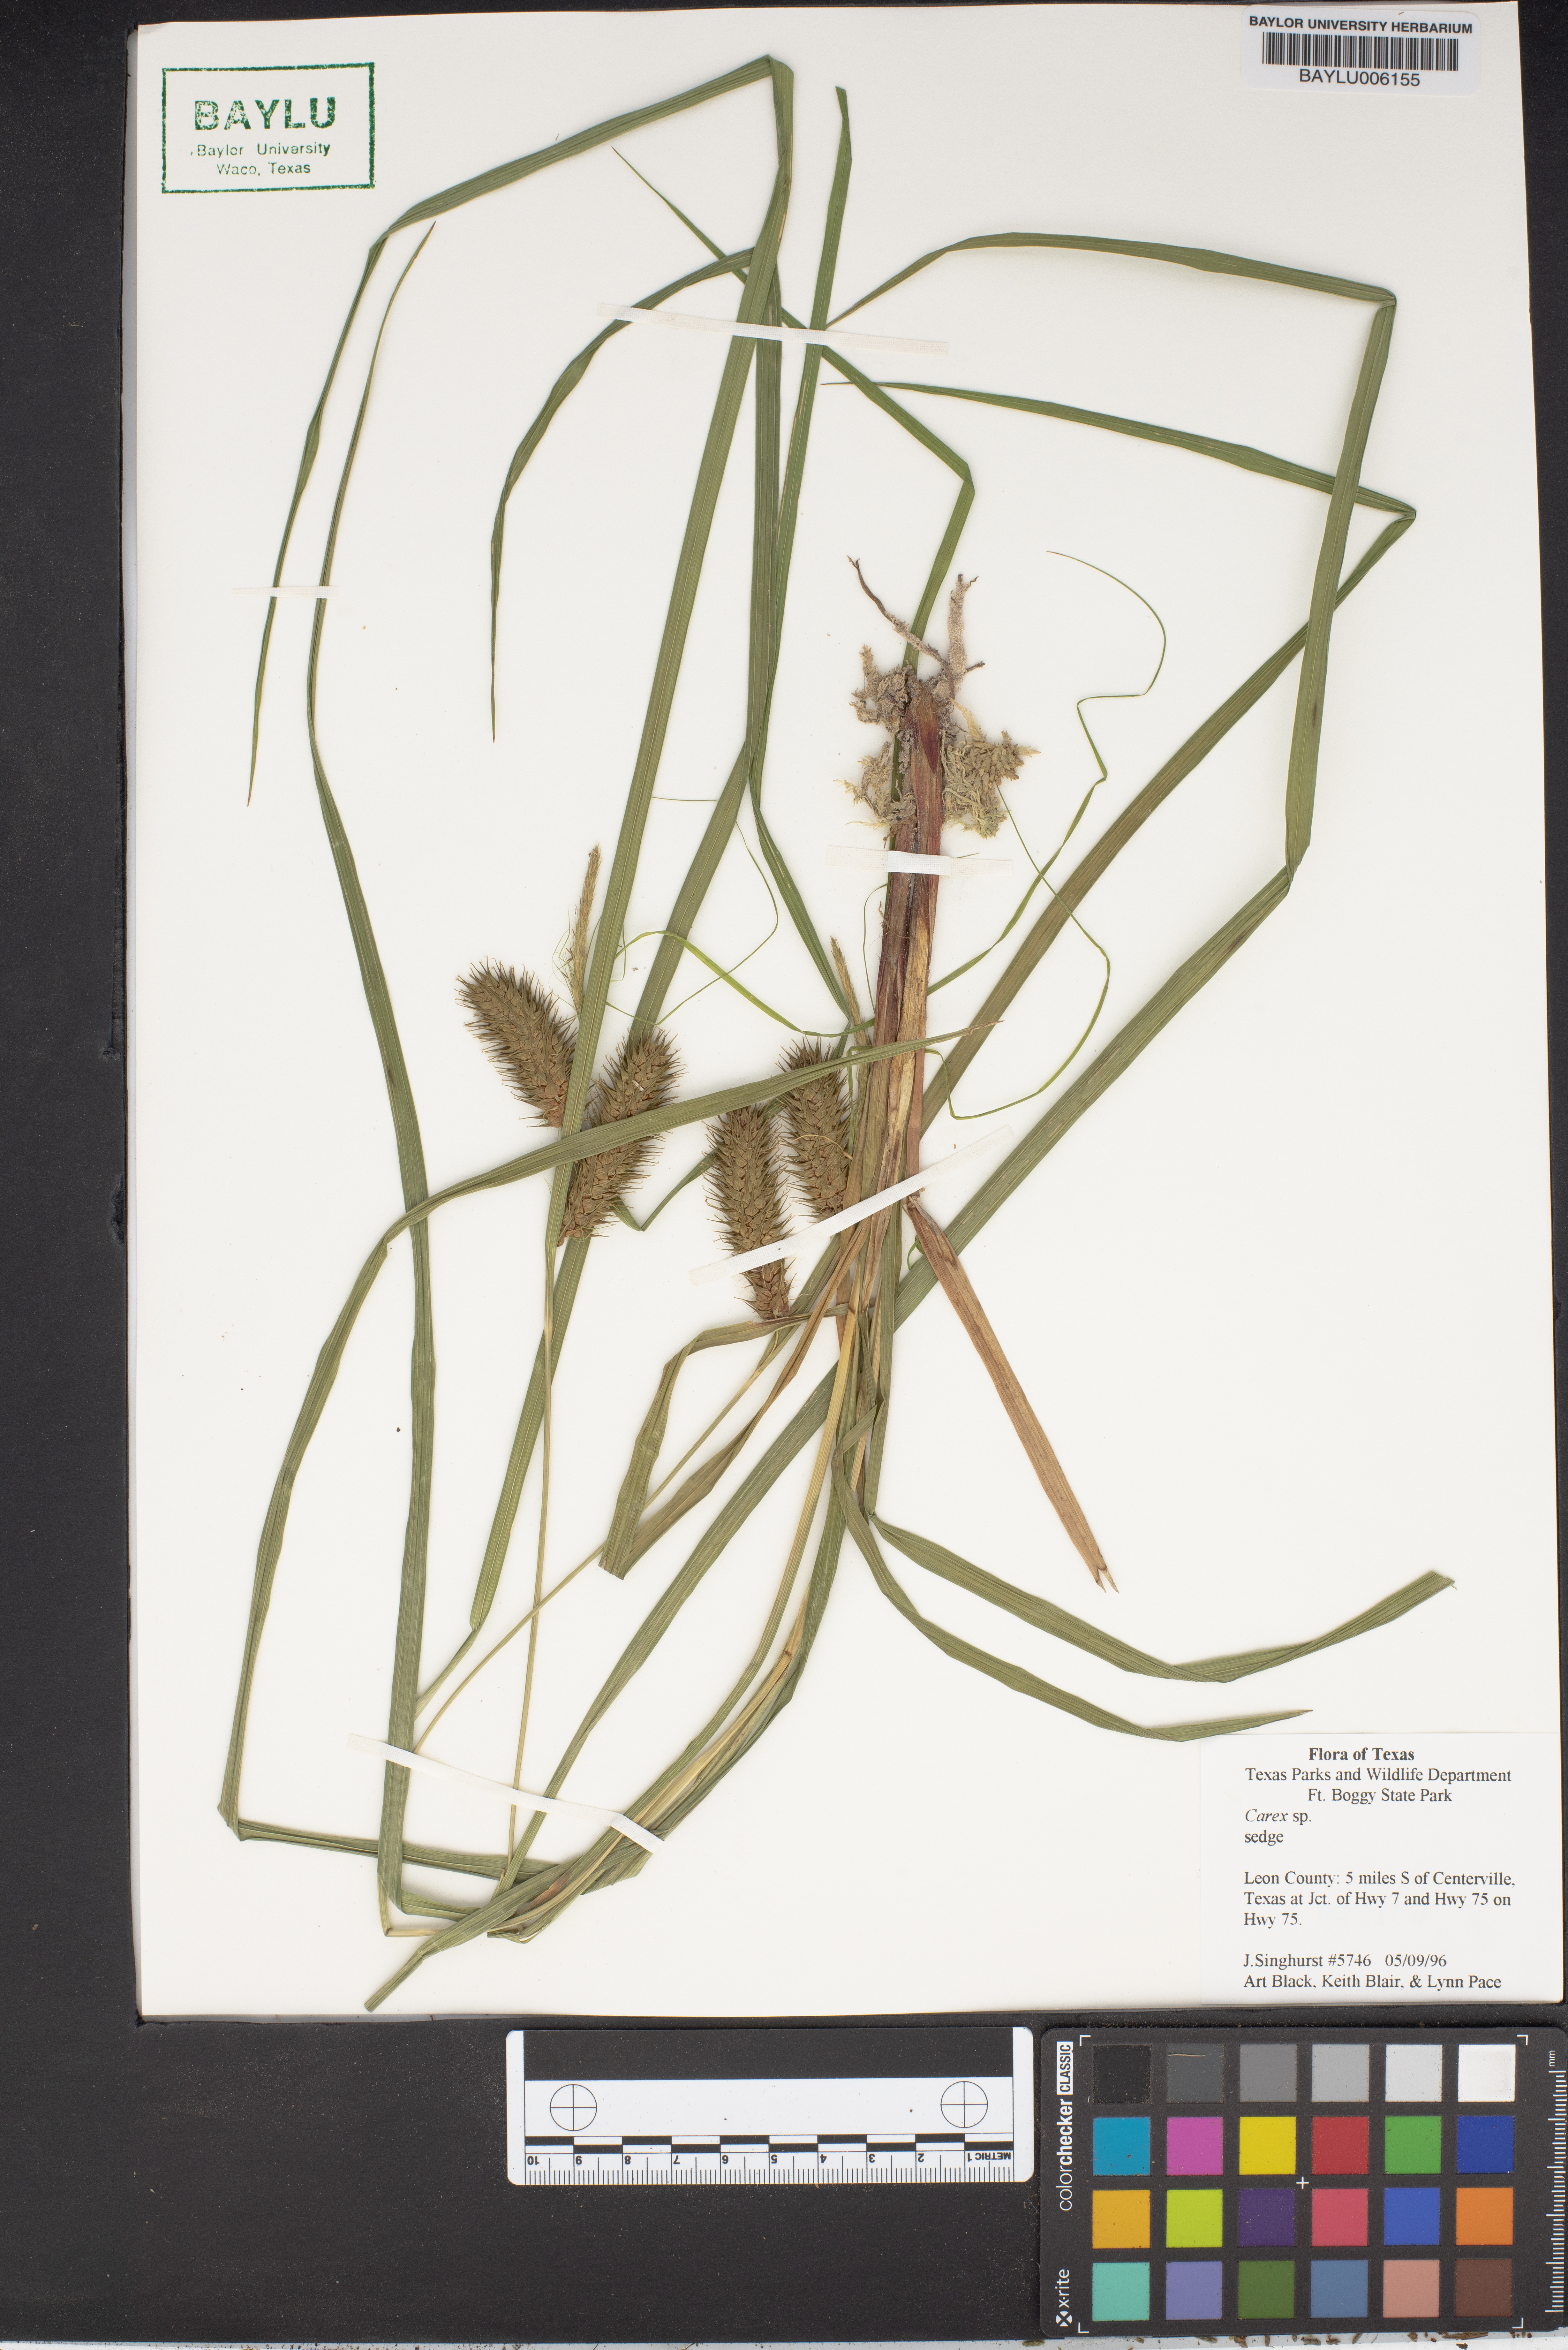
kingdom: Plantae
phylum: Tracheophyta
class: Liliopsida
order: Poales
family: Cyperaceae
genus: Carex
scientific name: Carex
